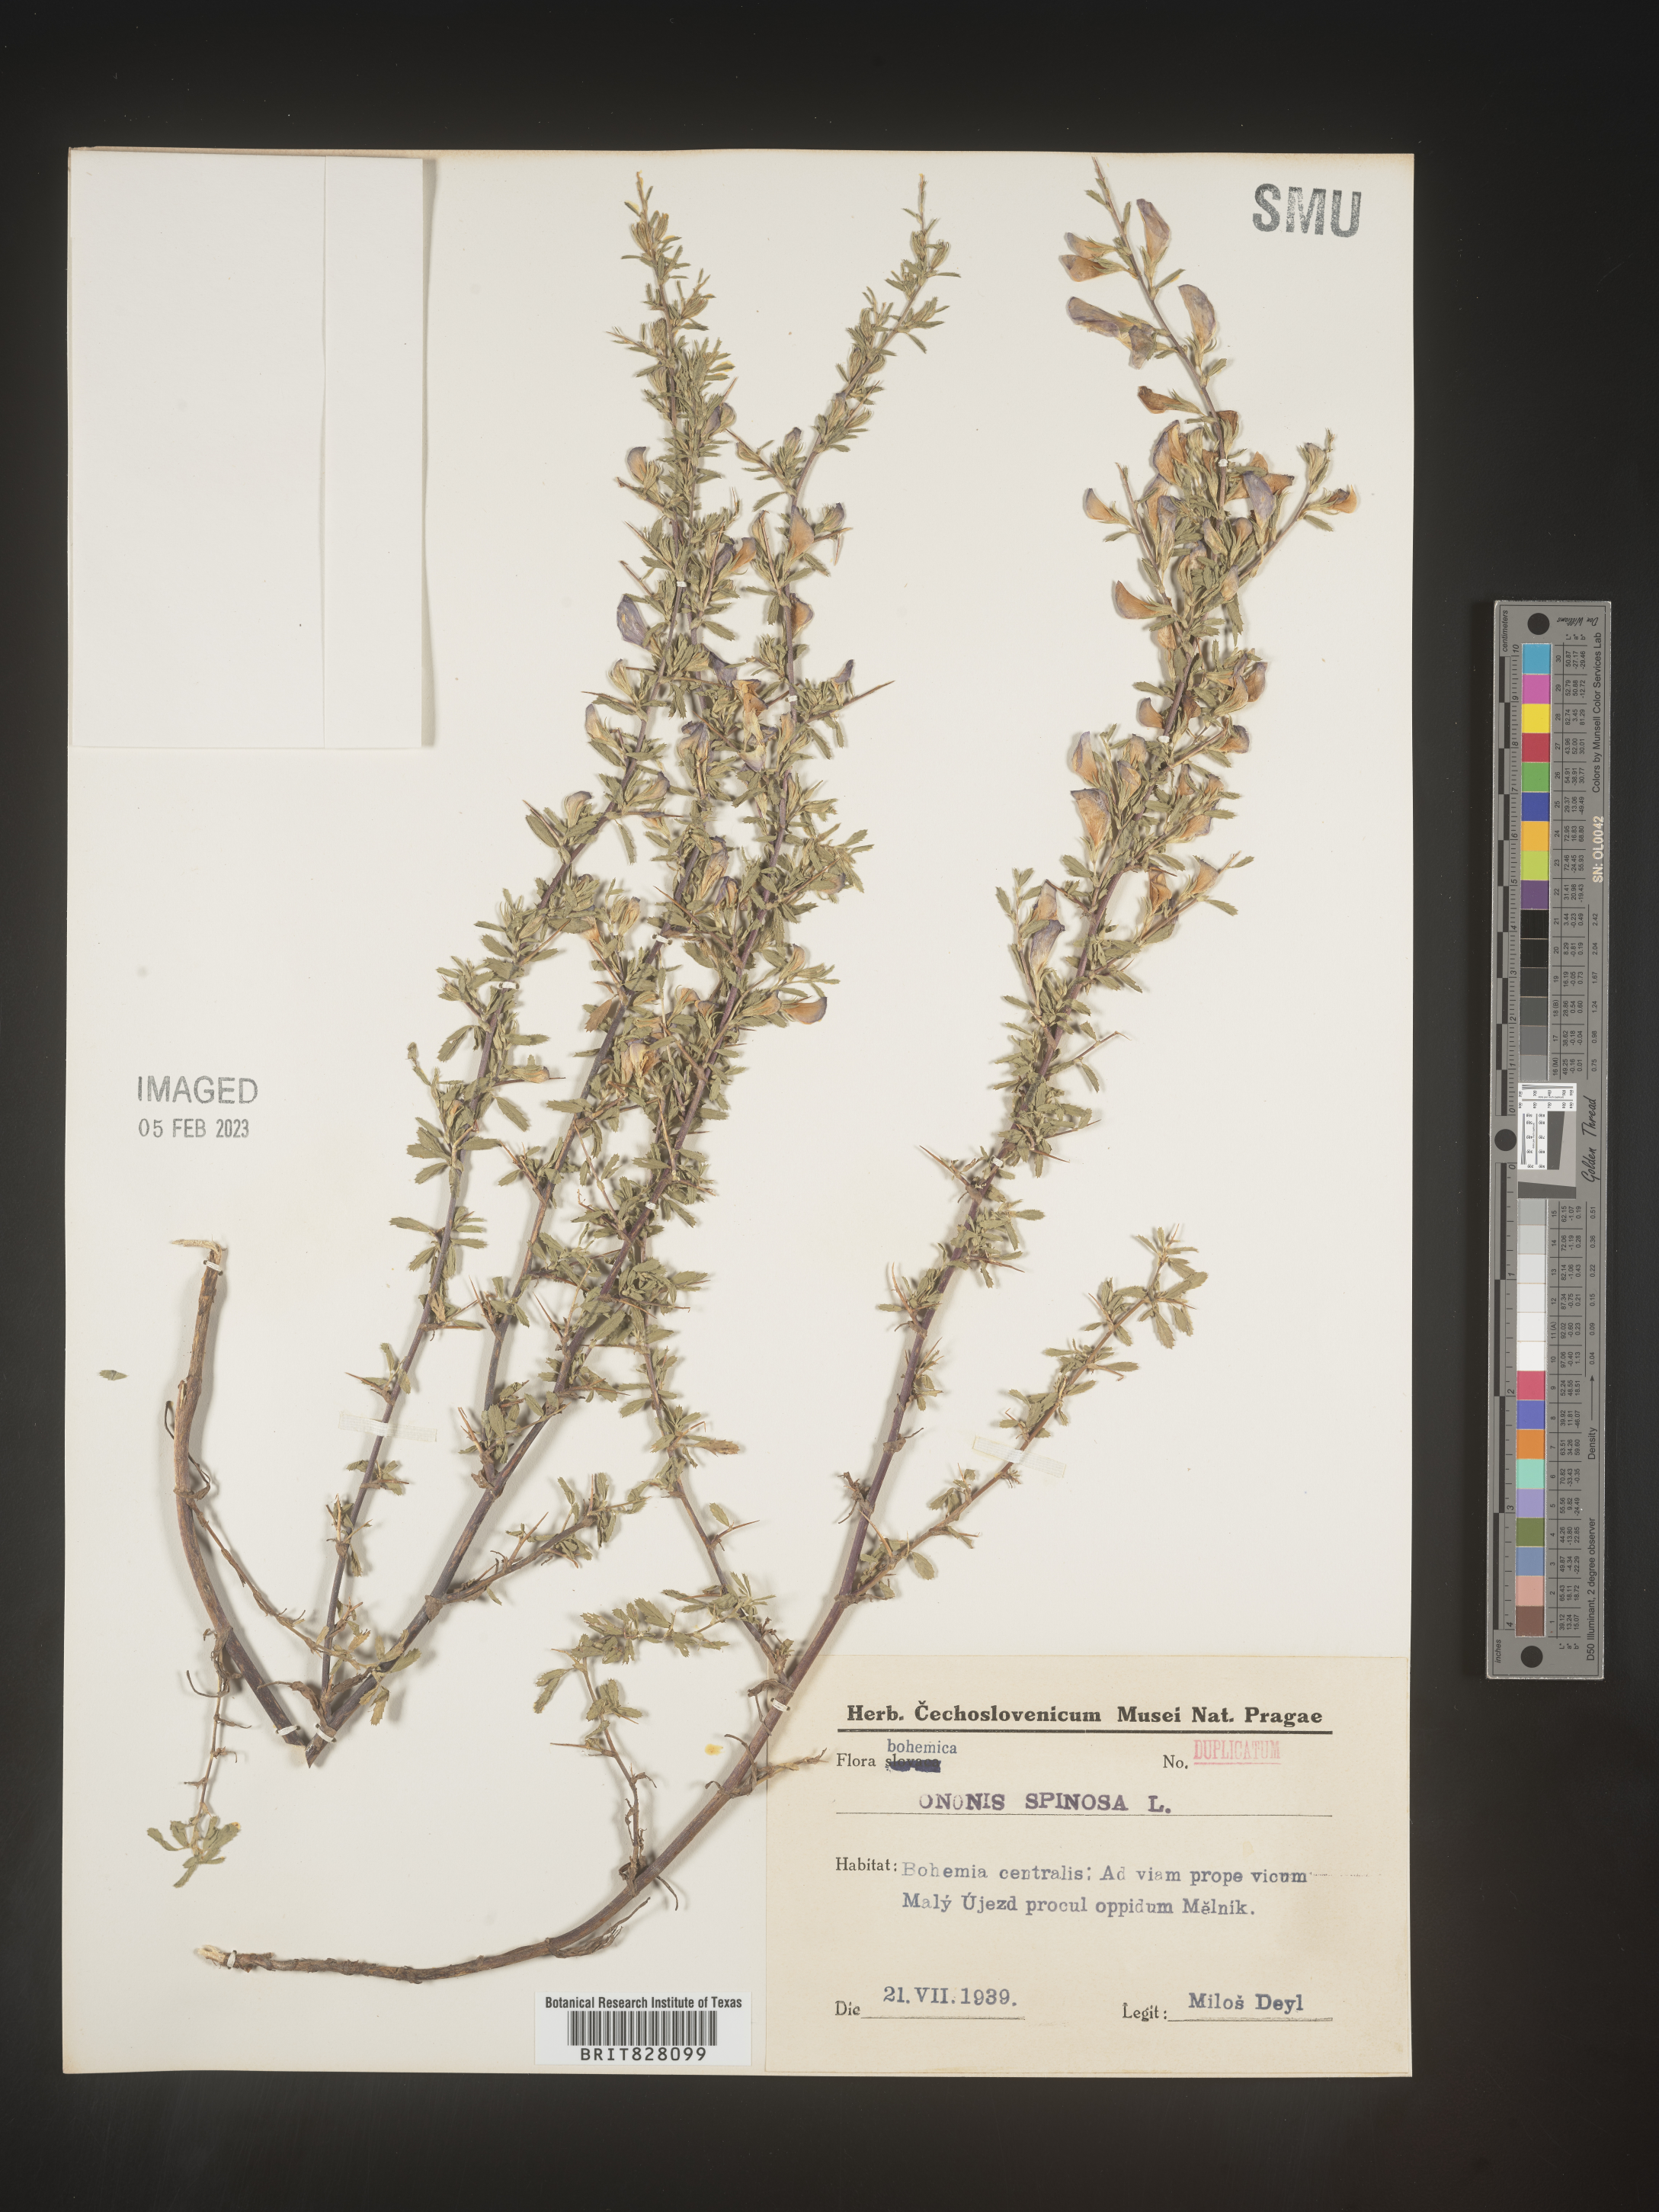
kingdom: Plantae
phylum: Tracheophyta
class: Magnoliopsida
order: Fabales
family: Fabaceae
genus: Ononis
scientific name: Ononis
